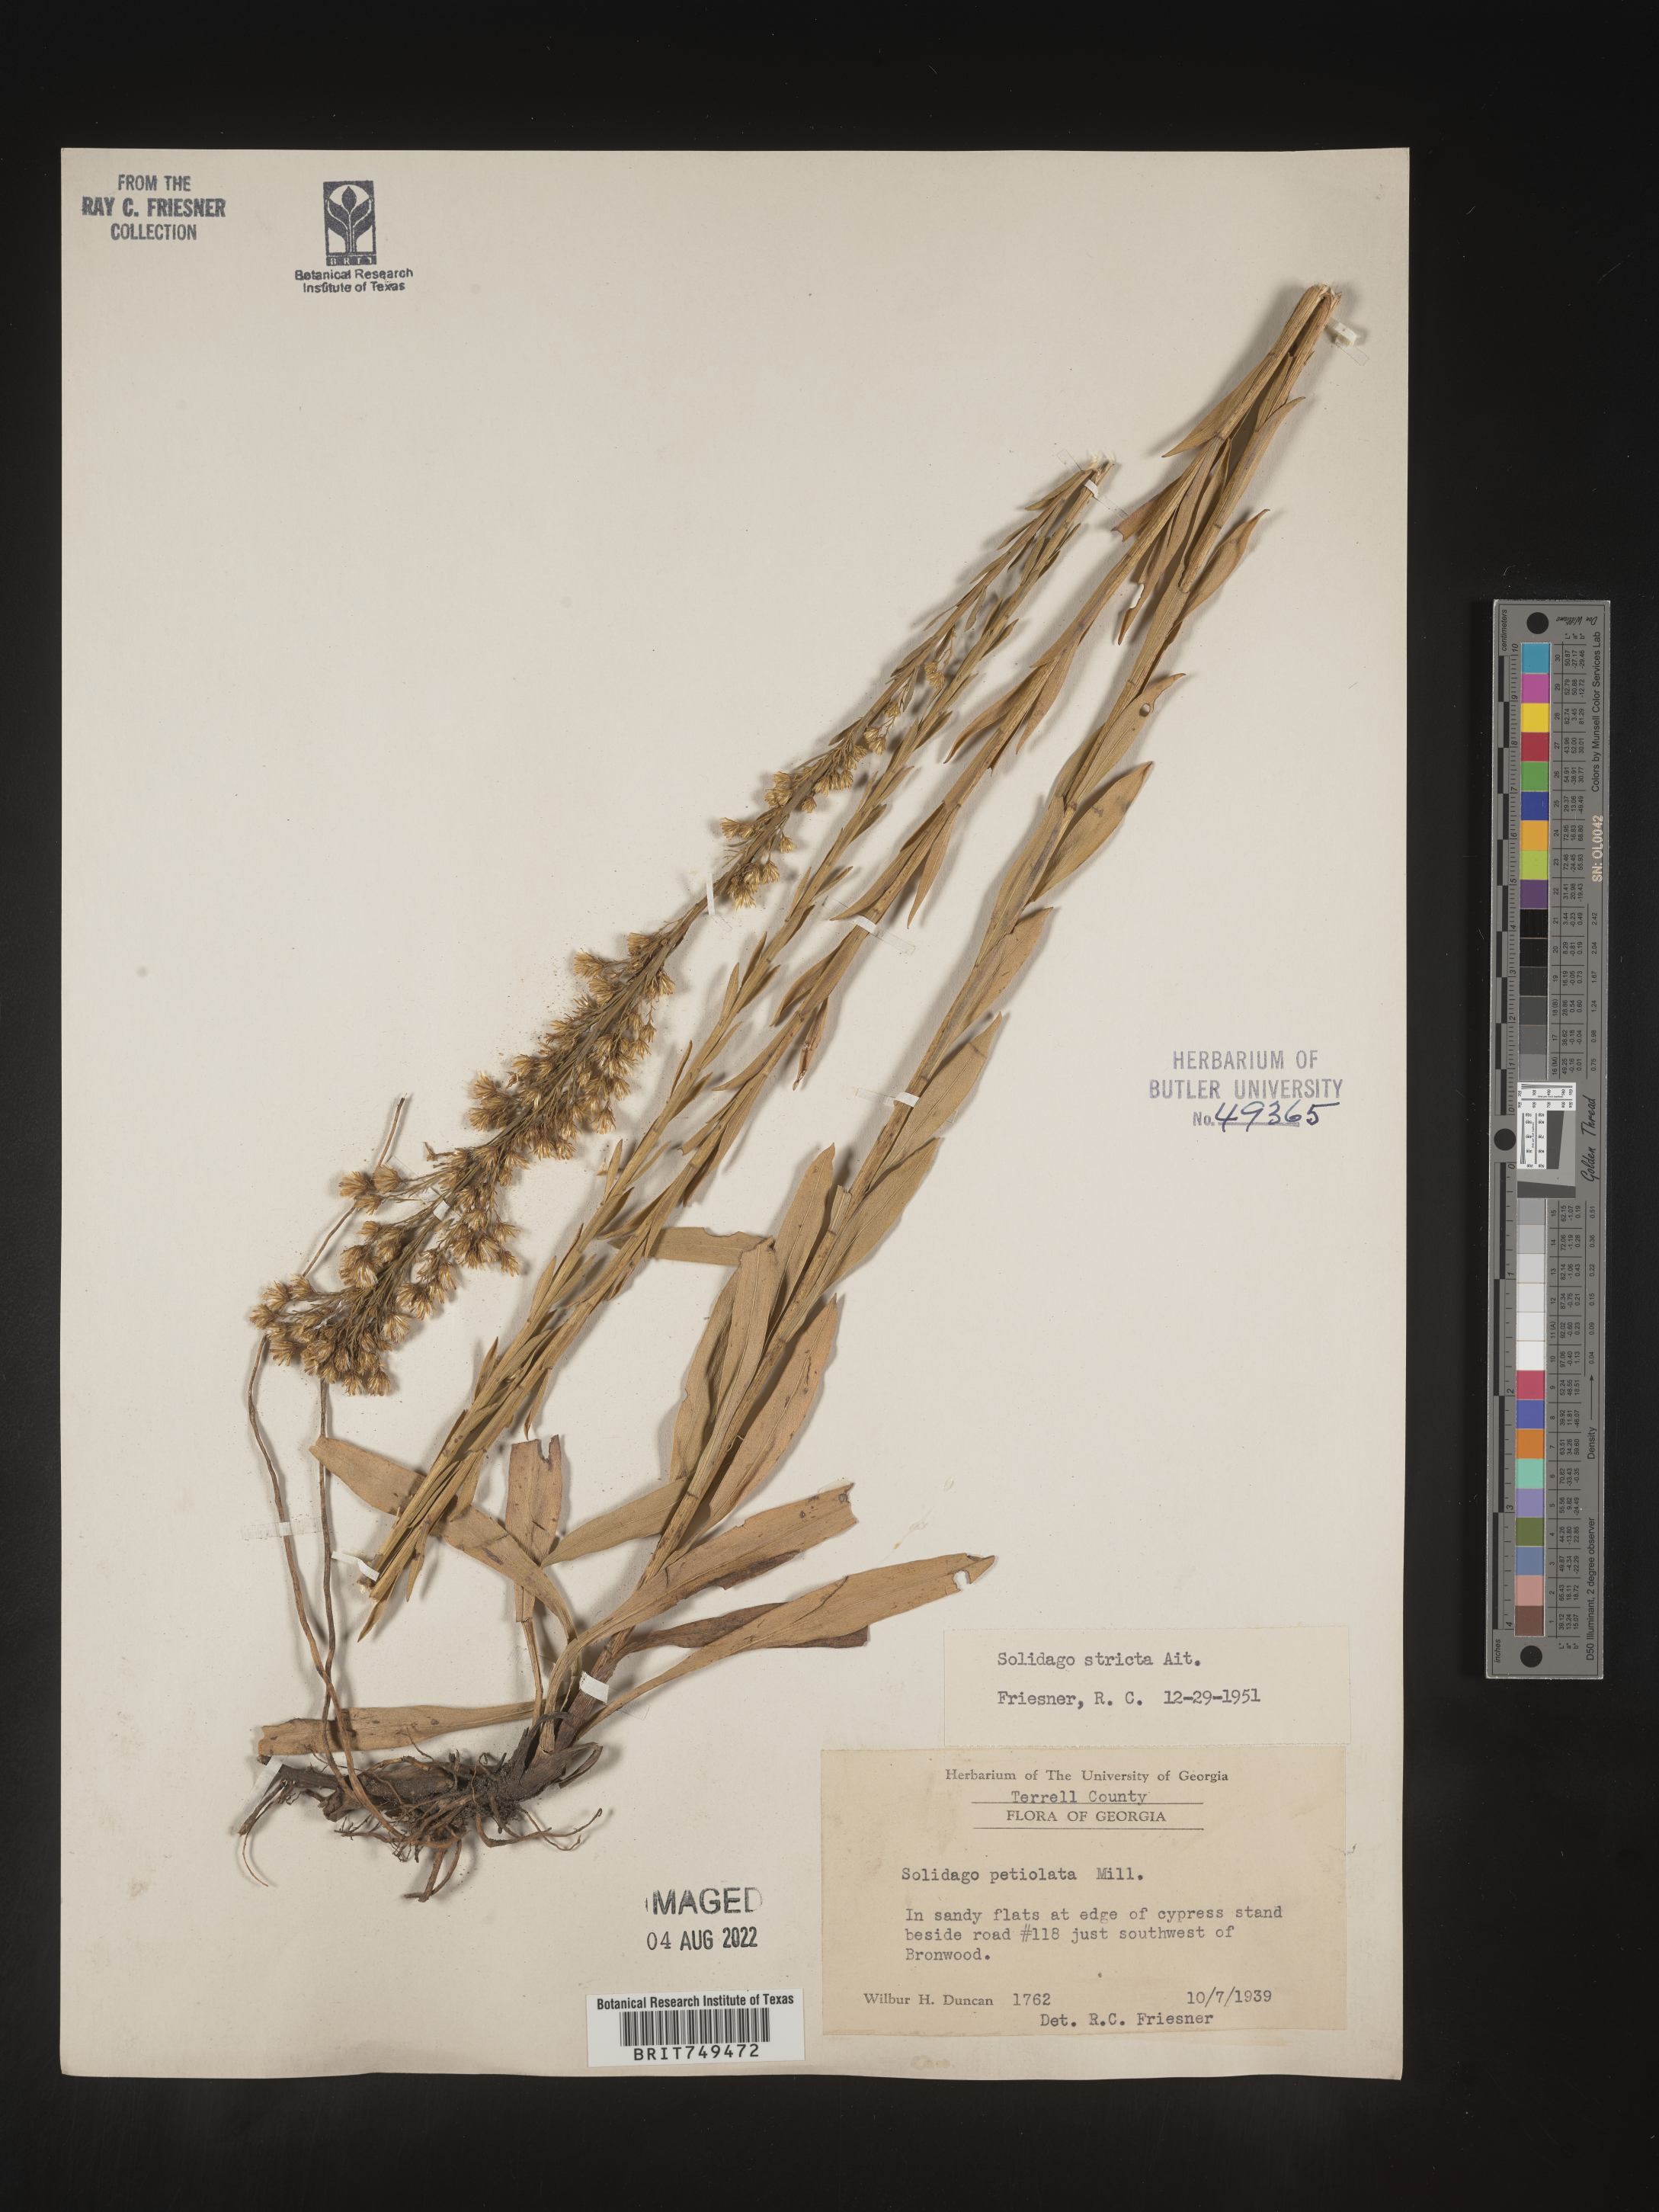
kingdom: Plantae
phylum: Tracheophyta
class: Magnoliopsida
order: Asterales
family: Asteraceae
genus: Solidago
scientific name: Solidago stricta
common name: Pine barren bog goldenrod
